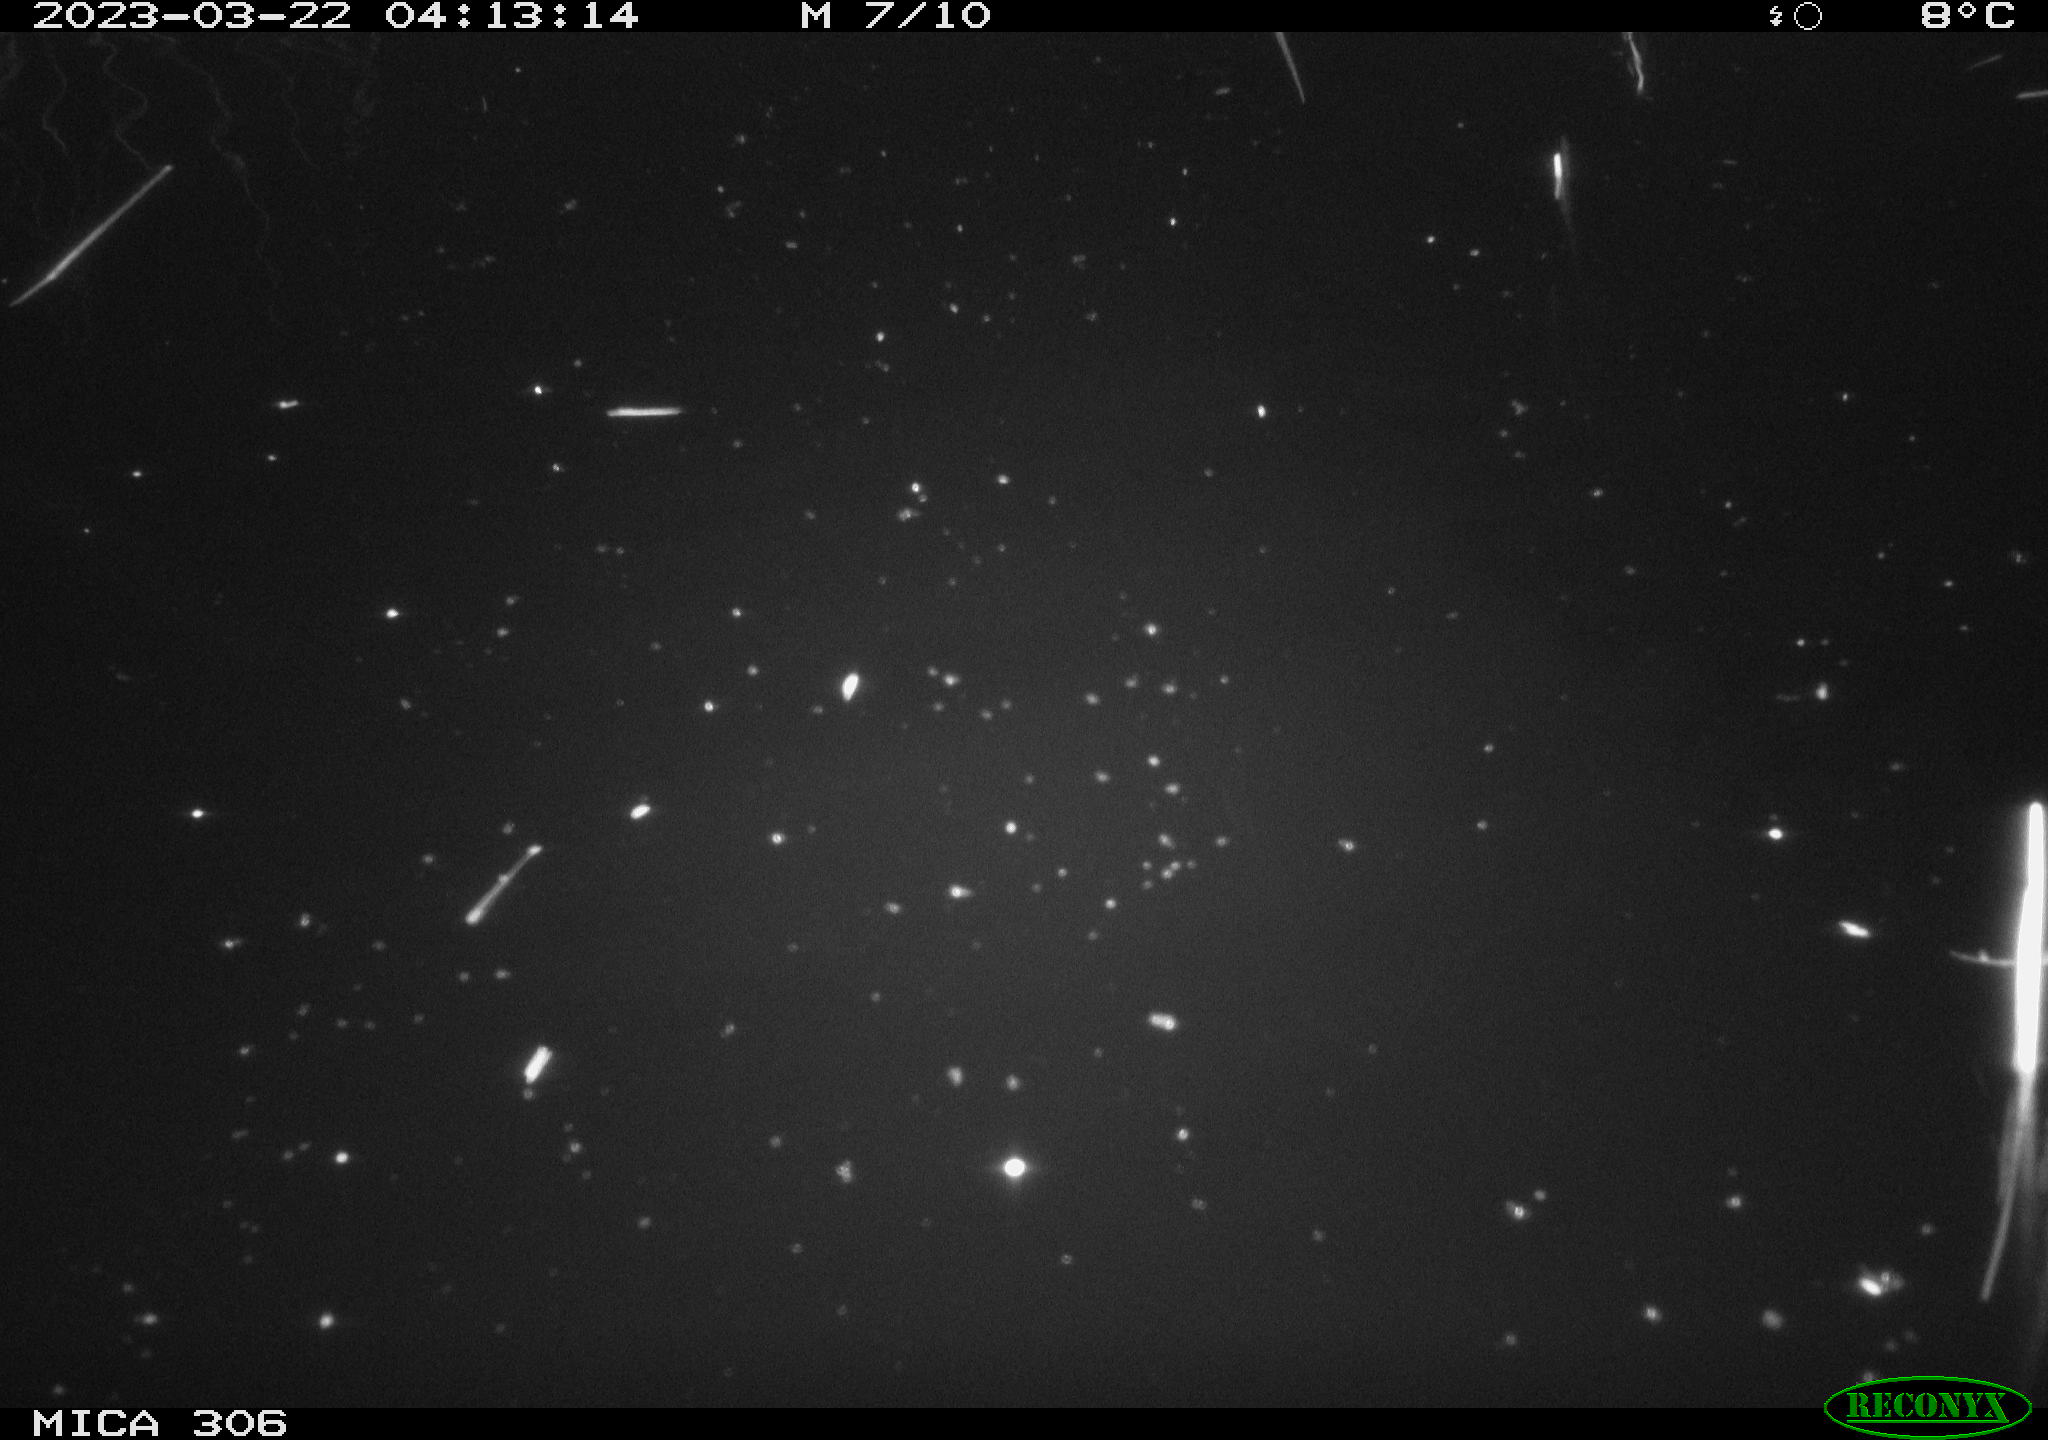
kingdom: Animalia
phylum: Chordata
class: Mammalia
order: Rodentia
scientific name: Rodentia
